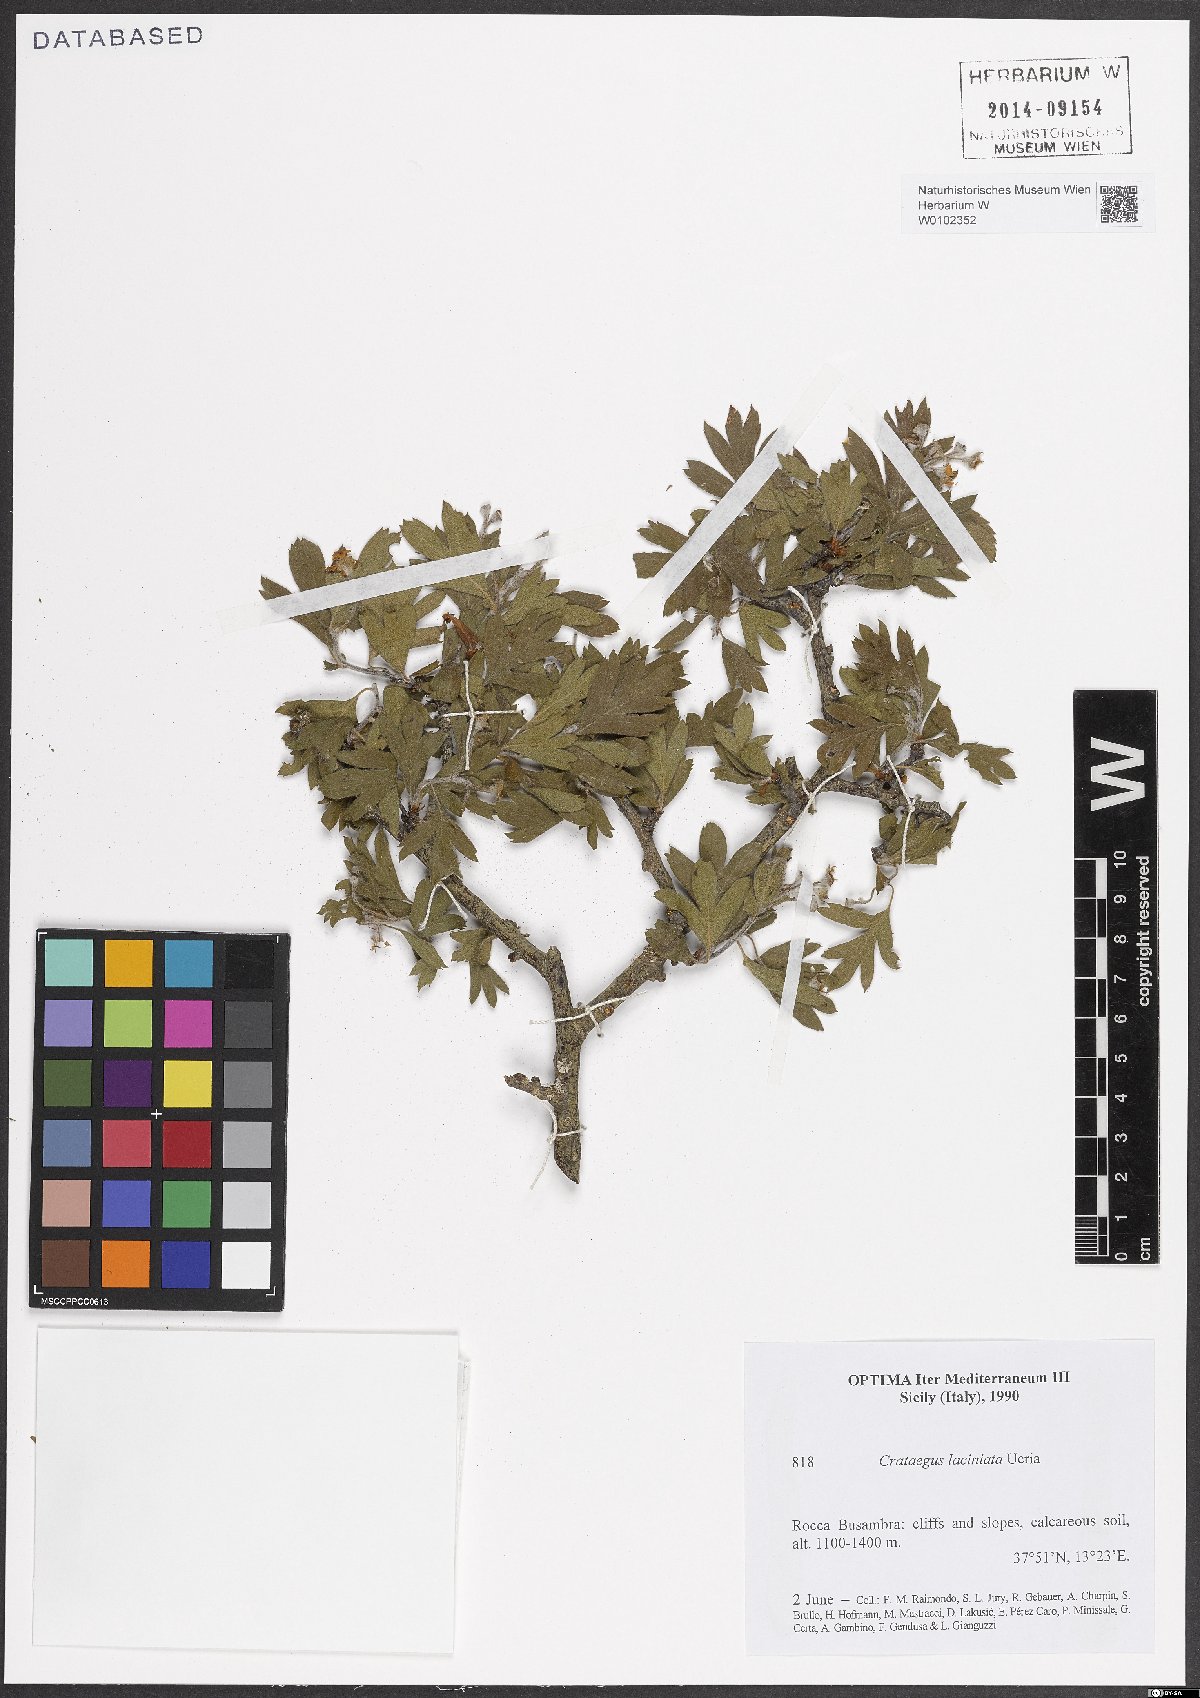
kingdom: Plantae
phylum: Tracheophyta
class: Magnoliopsida
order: Rosales
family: Rosaceae
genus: Crataegus
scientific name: Crataegus laciniata
